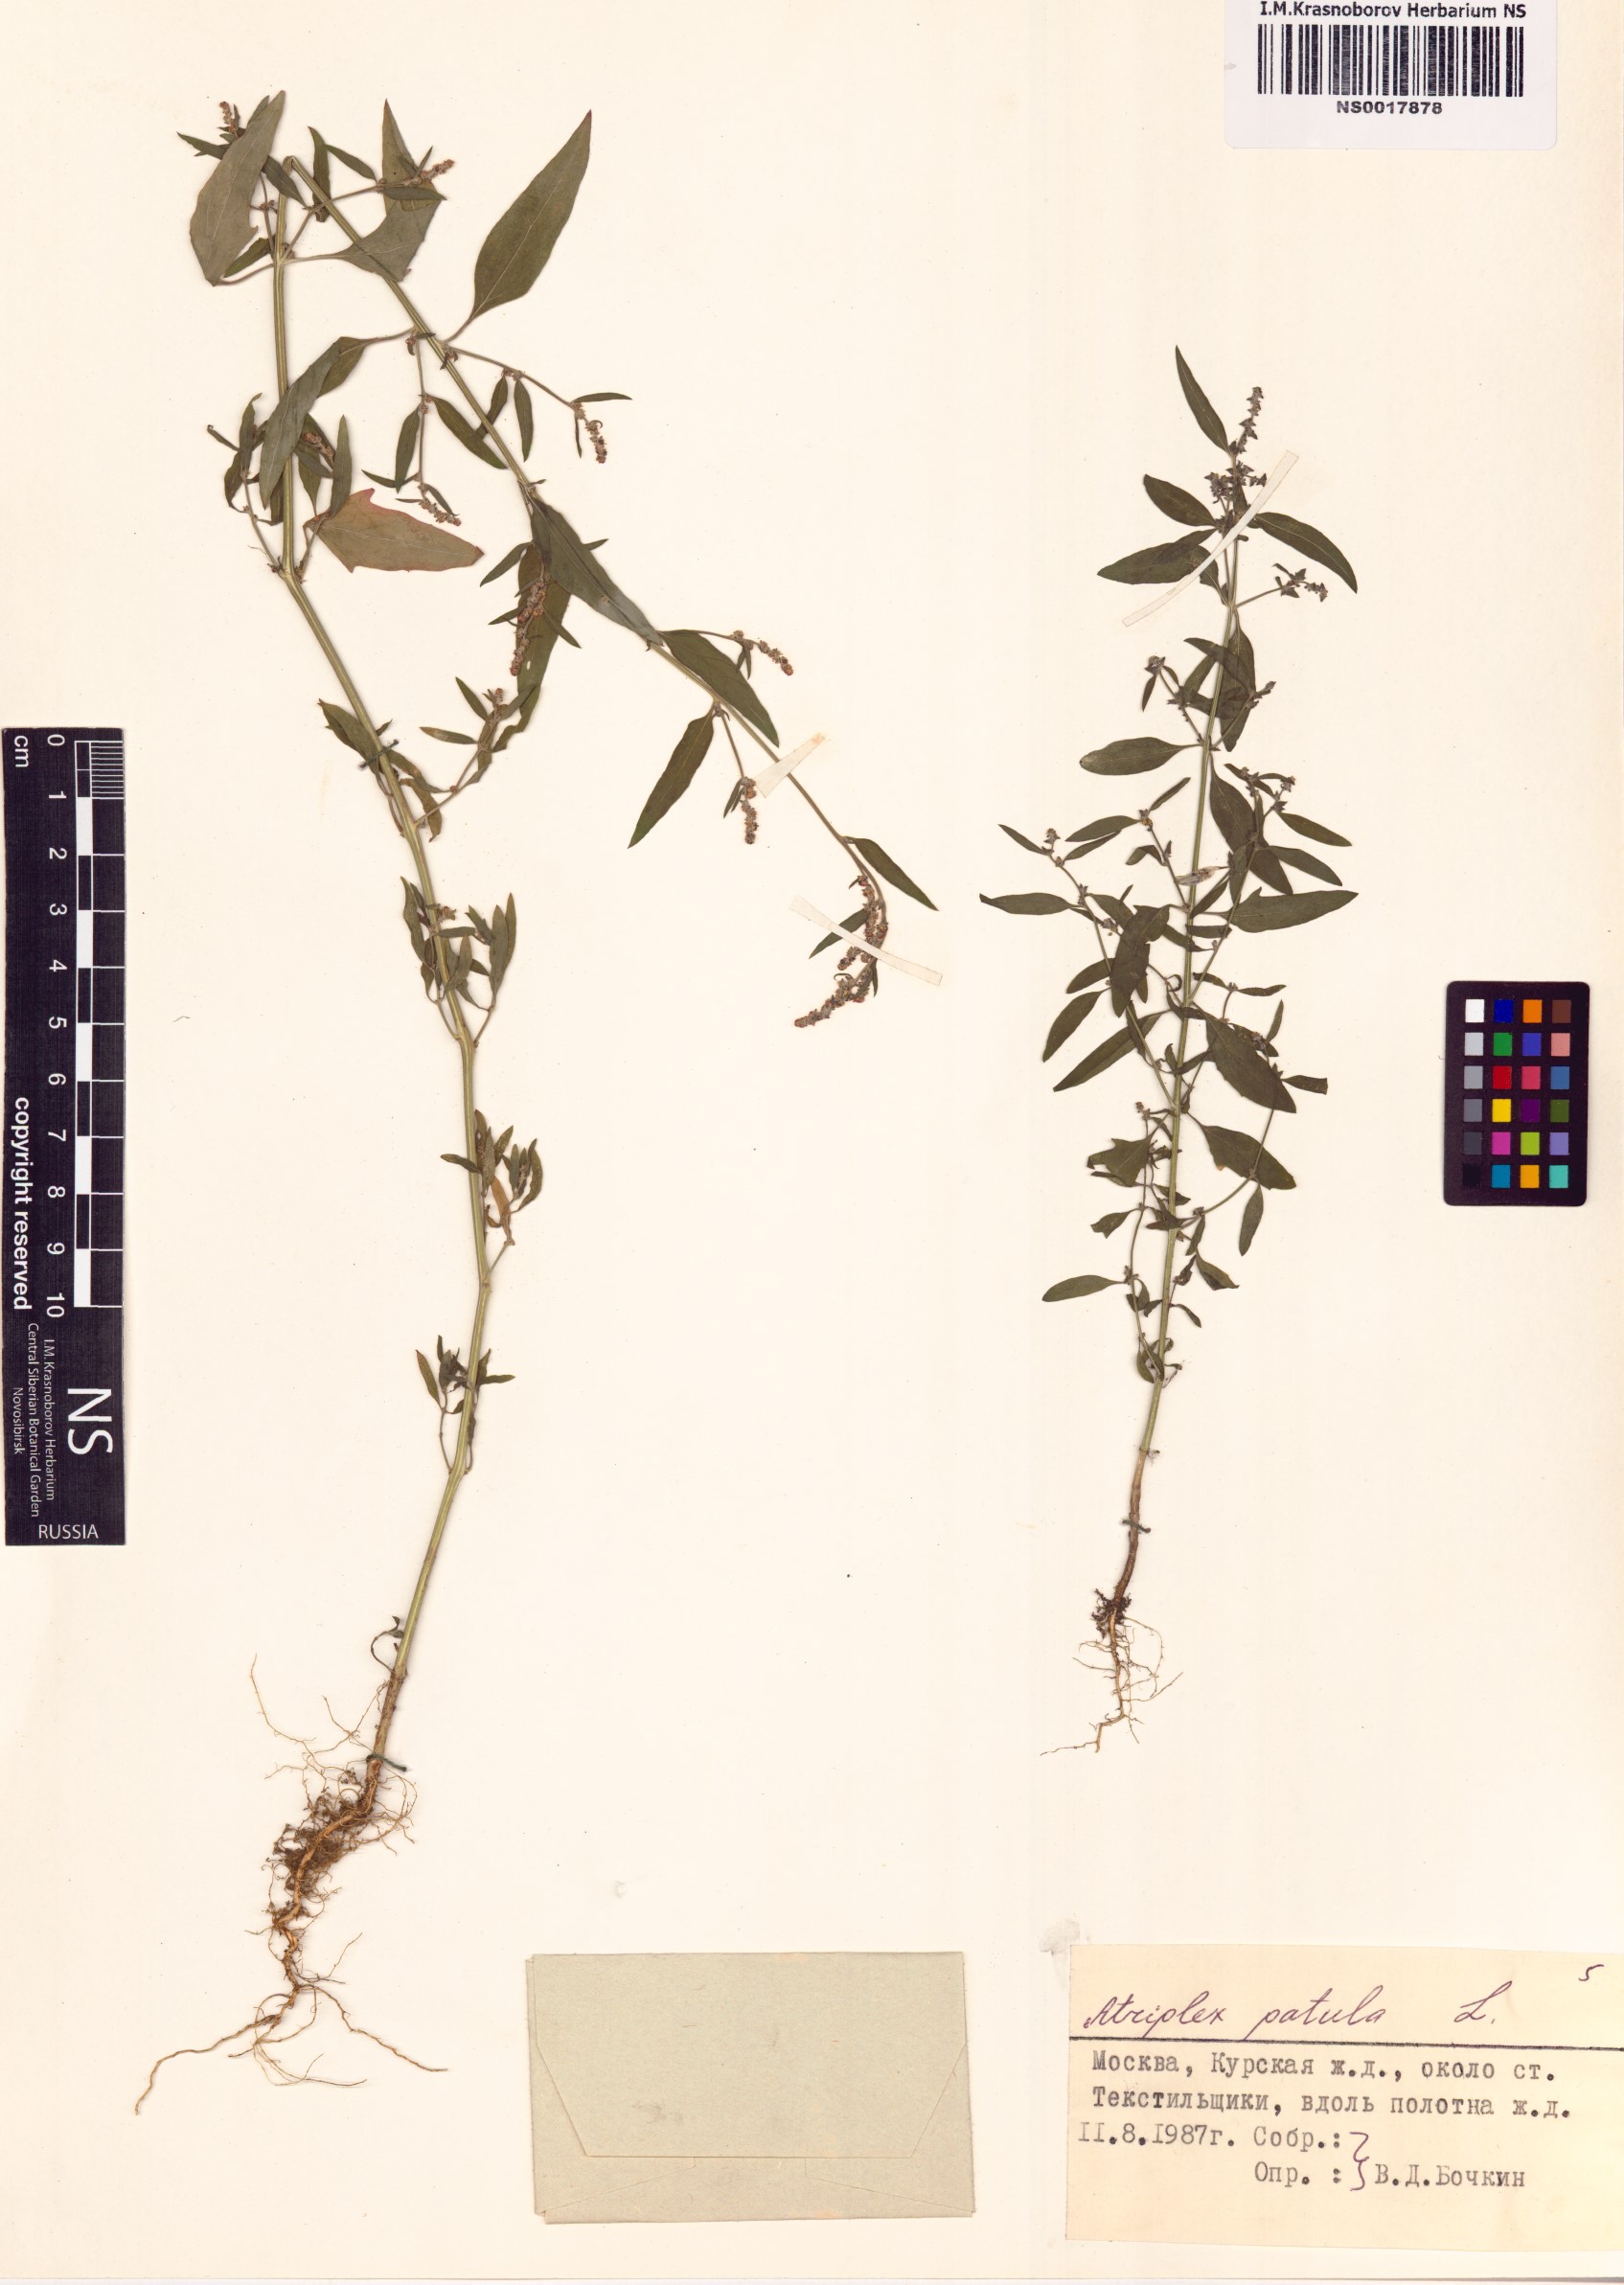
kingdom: Plantae
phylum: Tracheophyta
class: Magnoliopsida
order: Caryophyllales
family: Amaranthaceae
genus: Atriplex
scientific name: Atriplex patula
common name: Common orache
